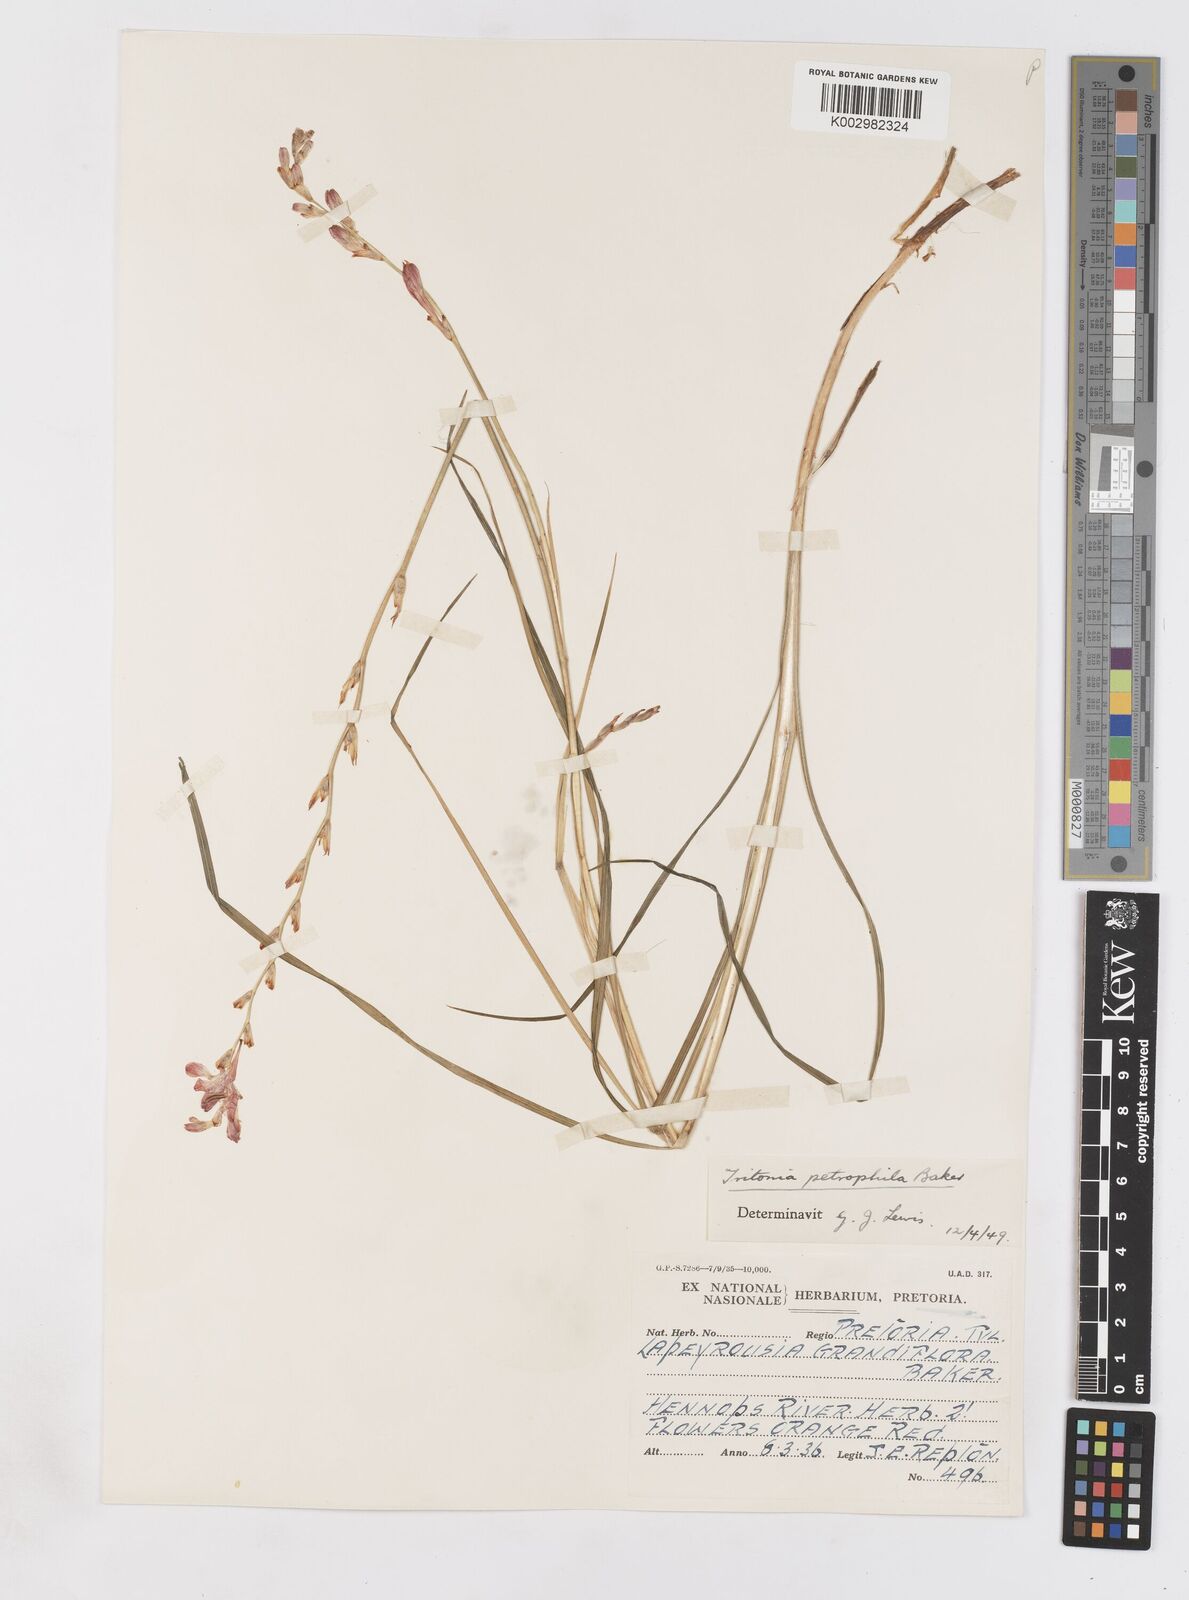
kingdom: Plantae
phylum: Tracheophyta
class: Liliopsida
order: Asparagales
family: Iridaceae
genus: Tritonia
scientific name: Tritonia nelsonii
